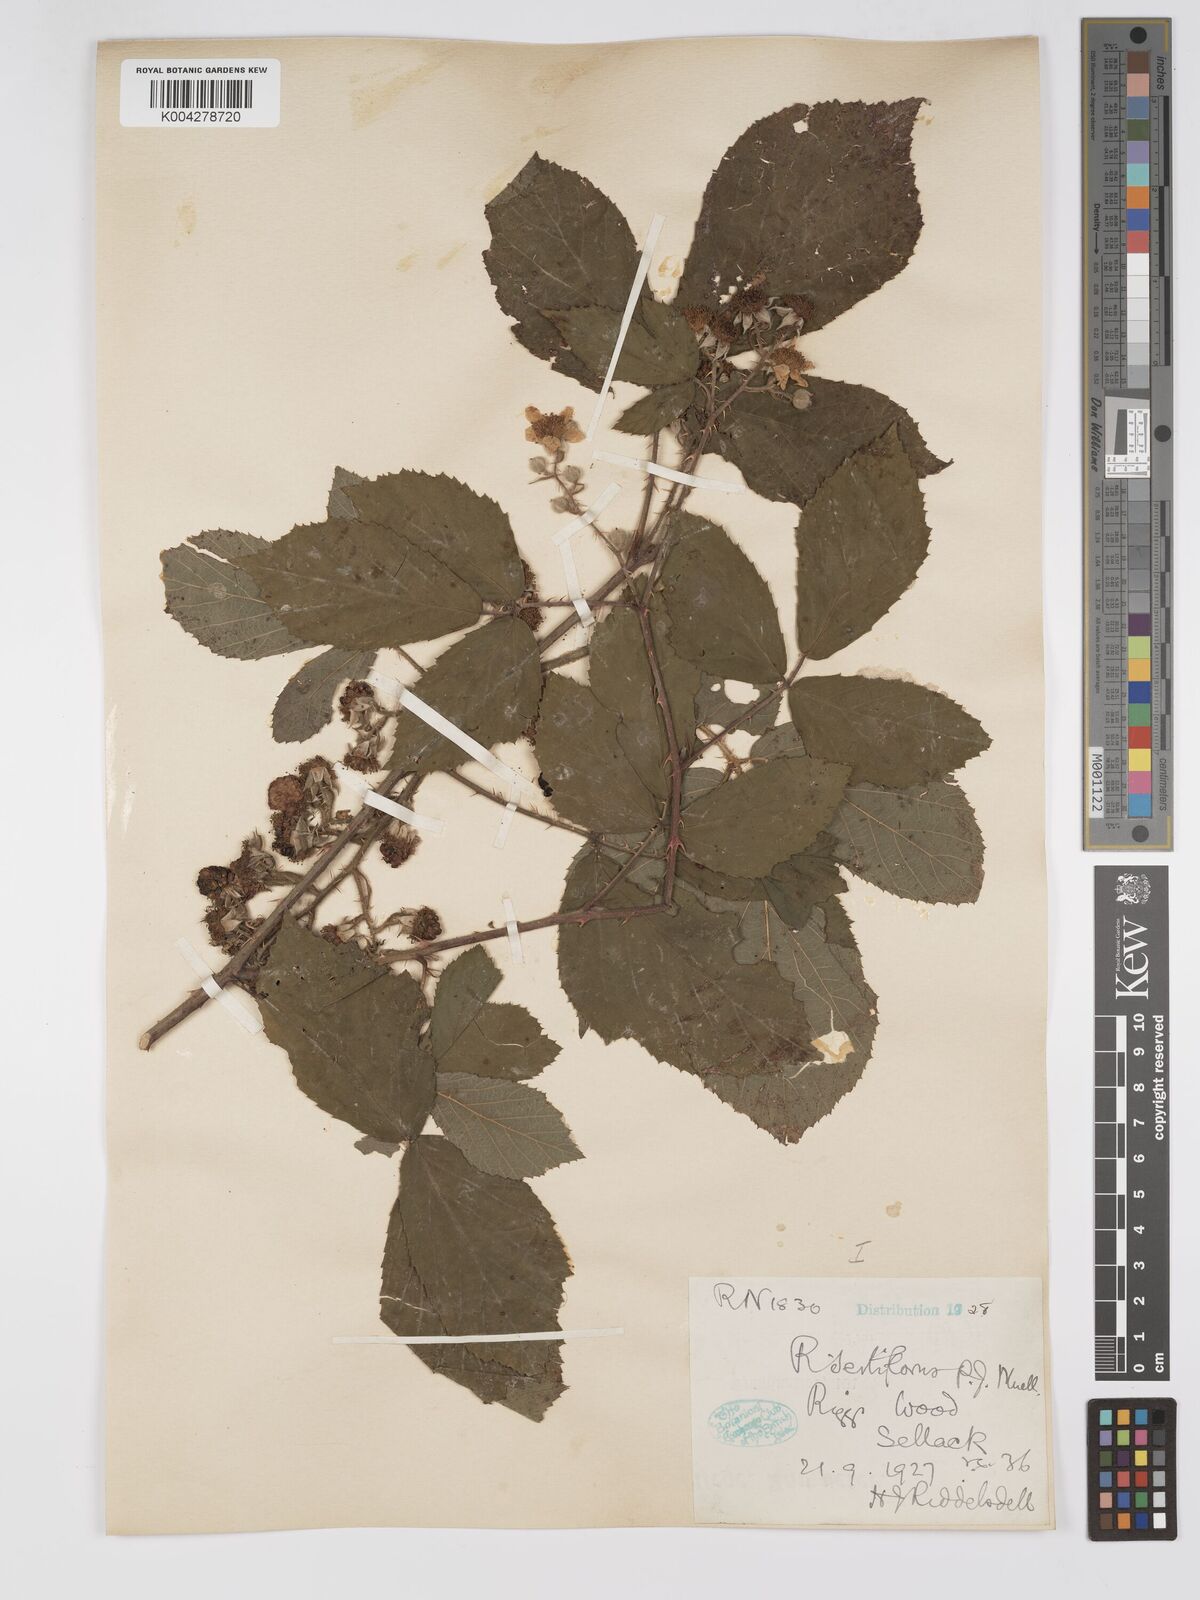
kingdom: Plantae
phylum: Tracheophyta
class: Magnoliopsida
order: Rosales
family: Rosaceae
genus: Rubus
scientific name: Rubus
